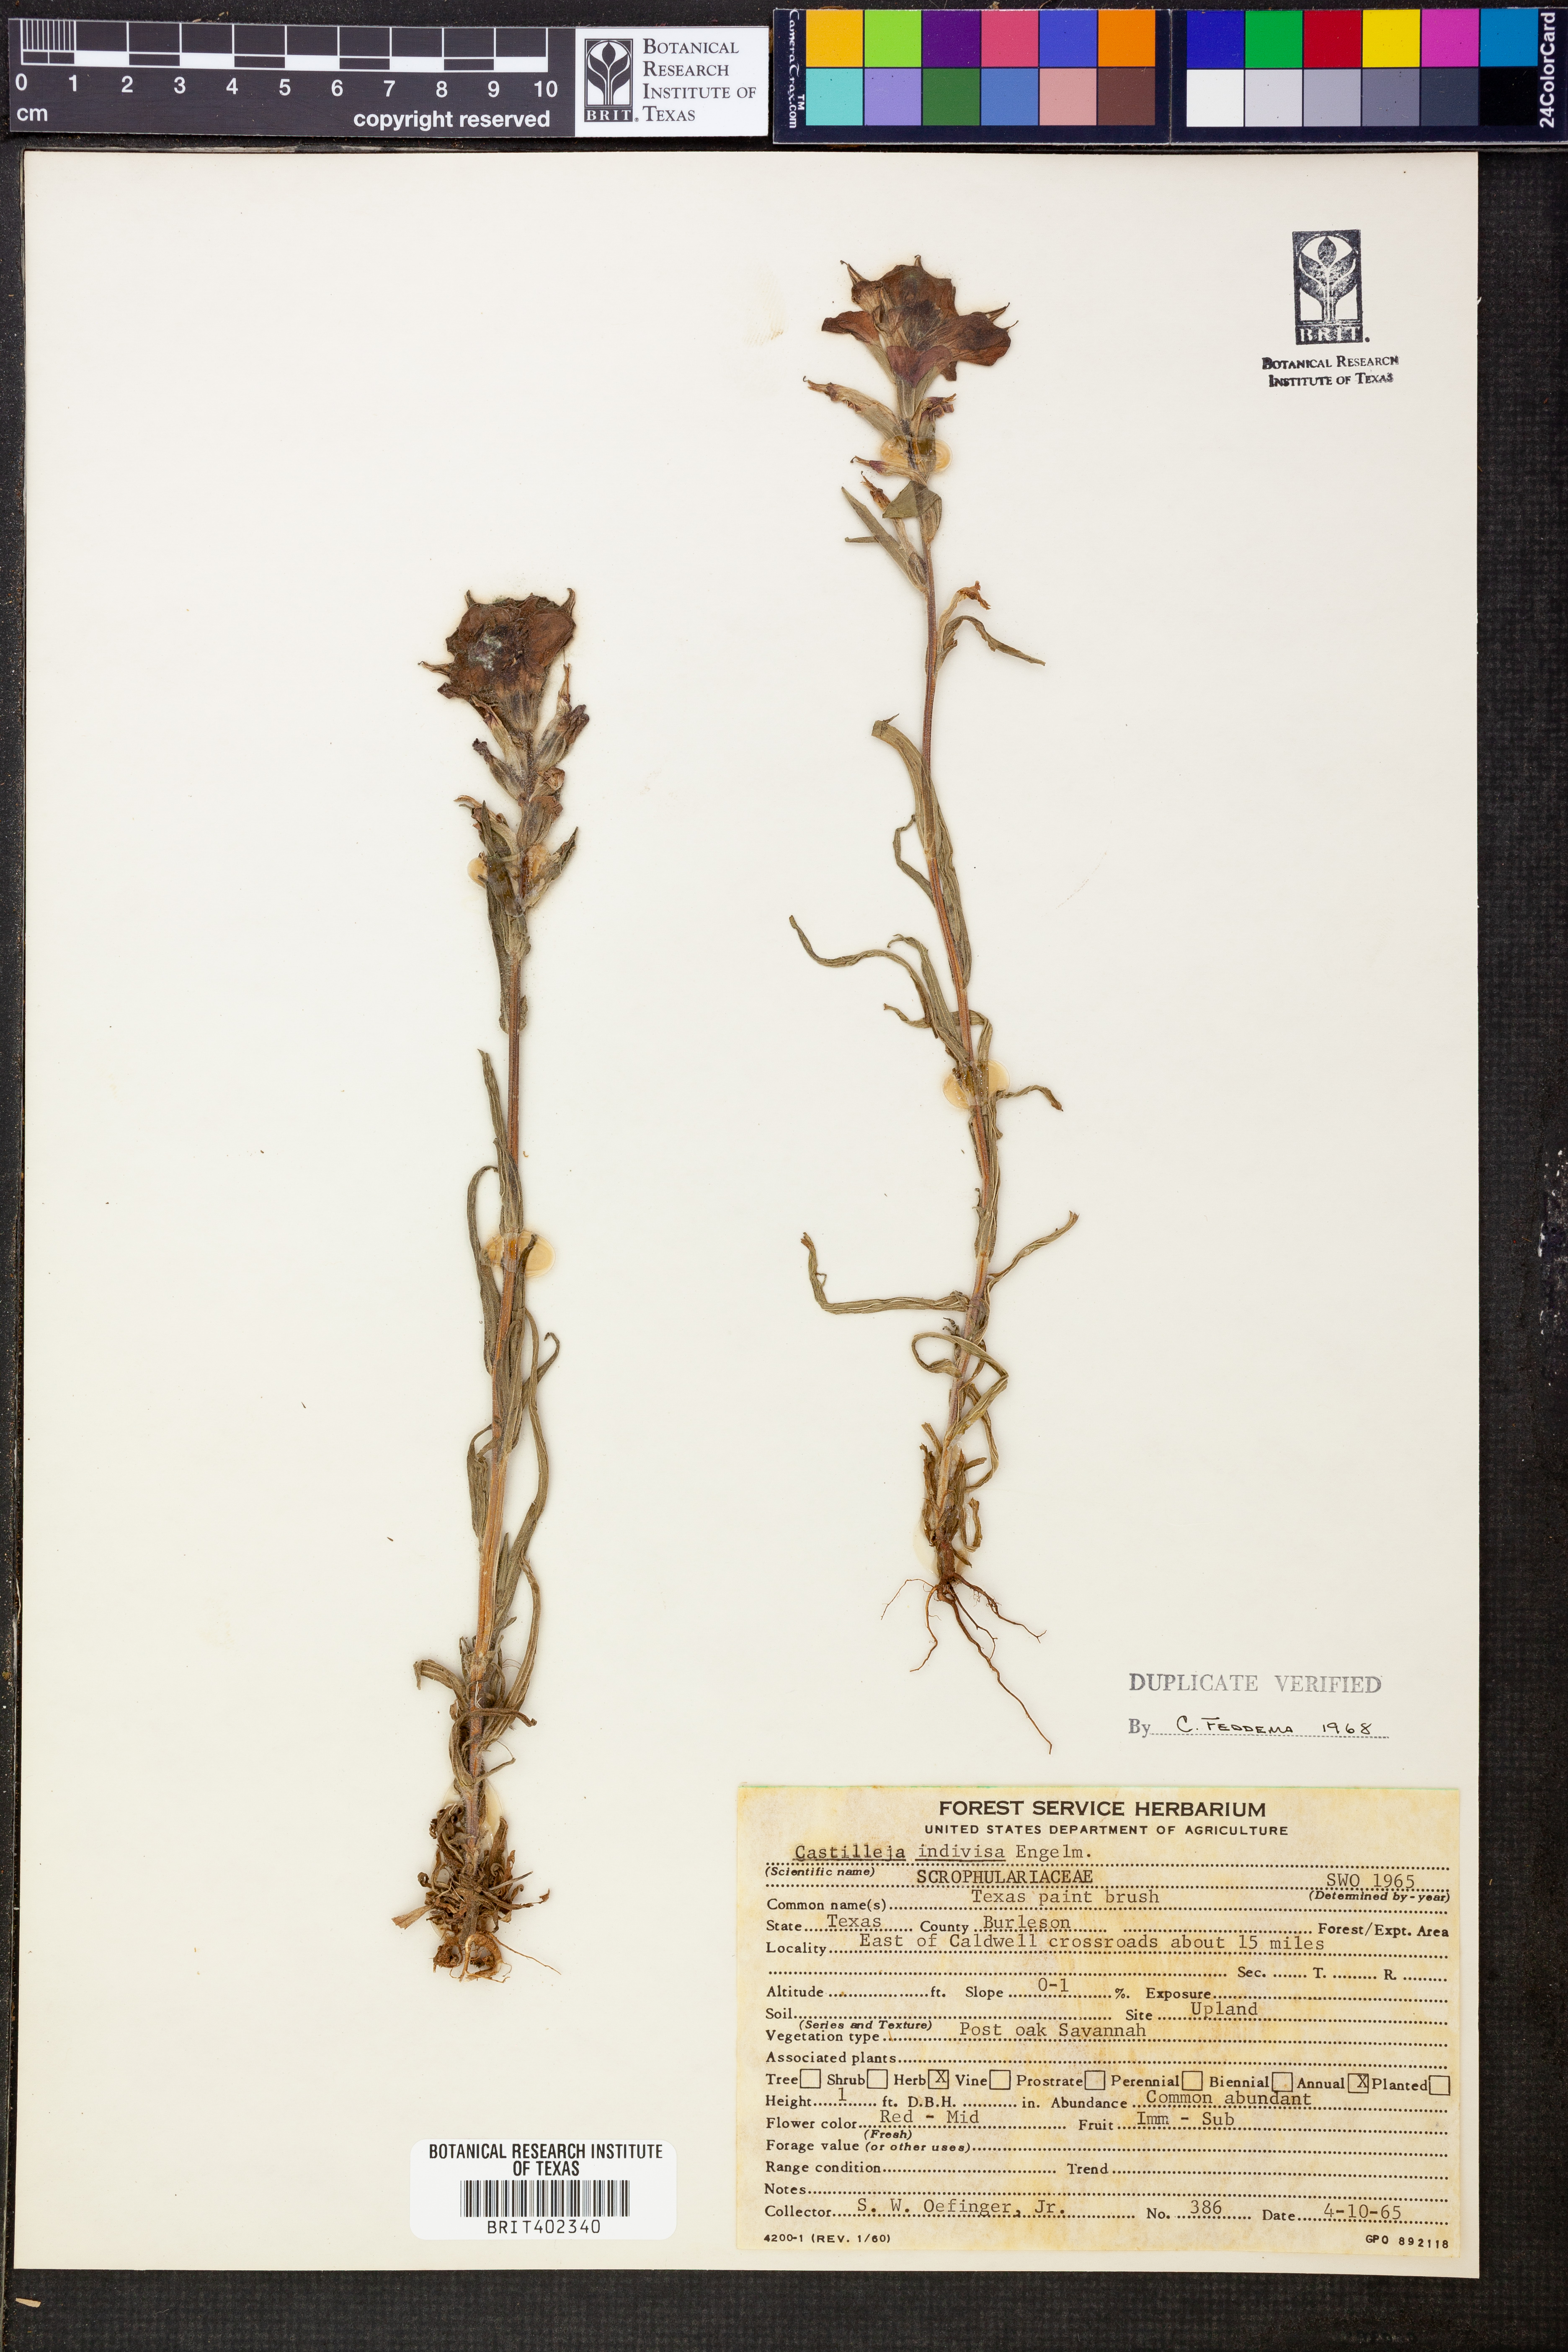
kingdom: Plantae
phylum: Tracheophyta
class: Magnoliopsida
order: Lamiales
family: Orobanchaceae
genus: Castilleja
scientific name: Castilleja indivisa
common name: Texas paintbrush
